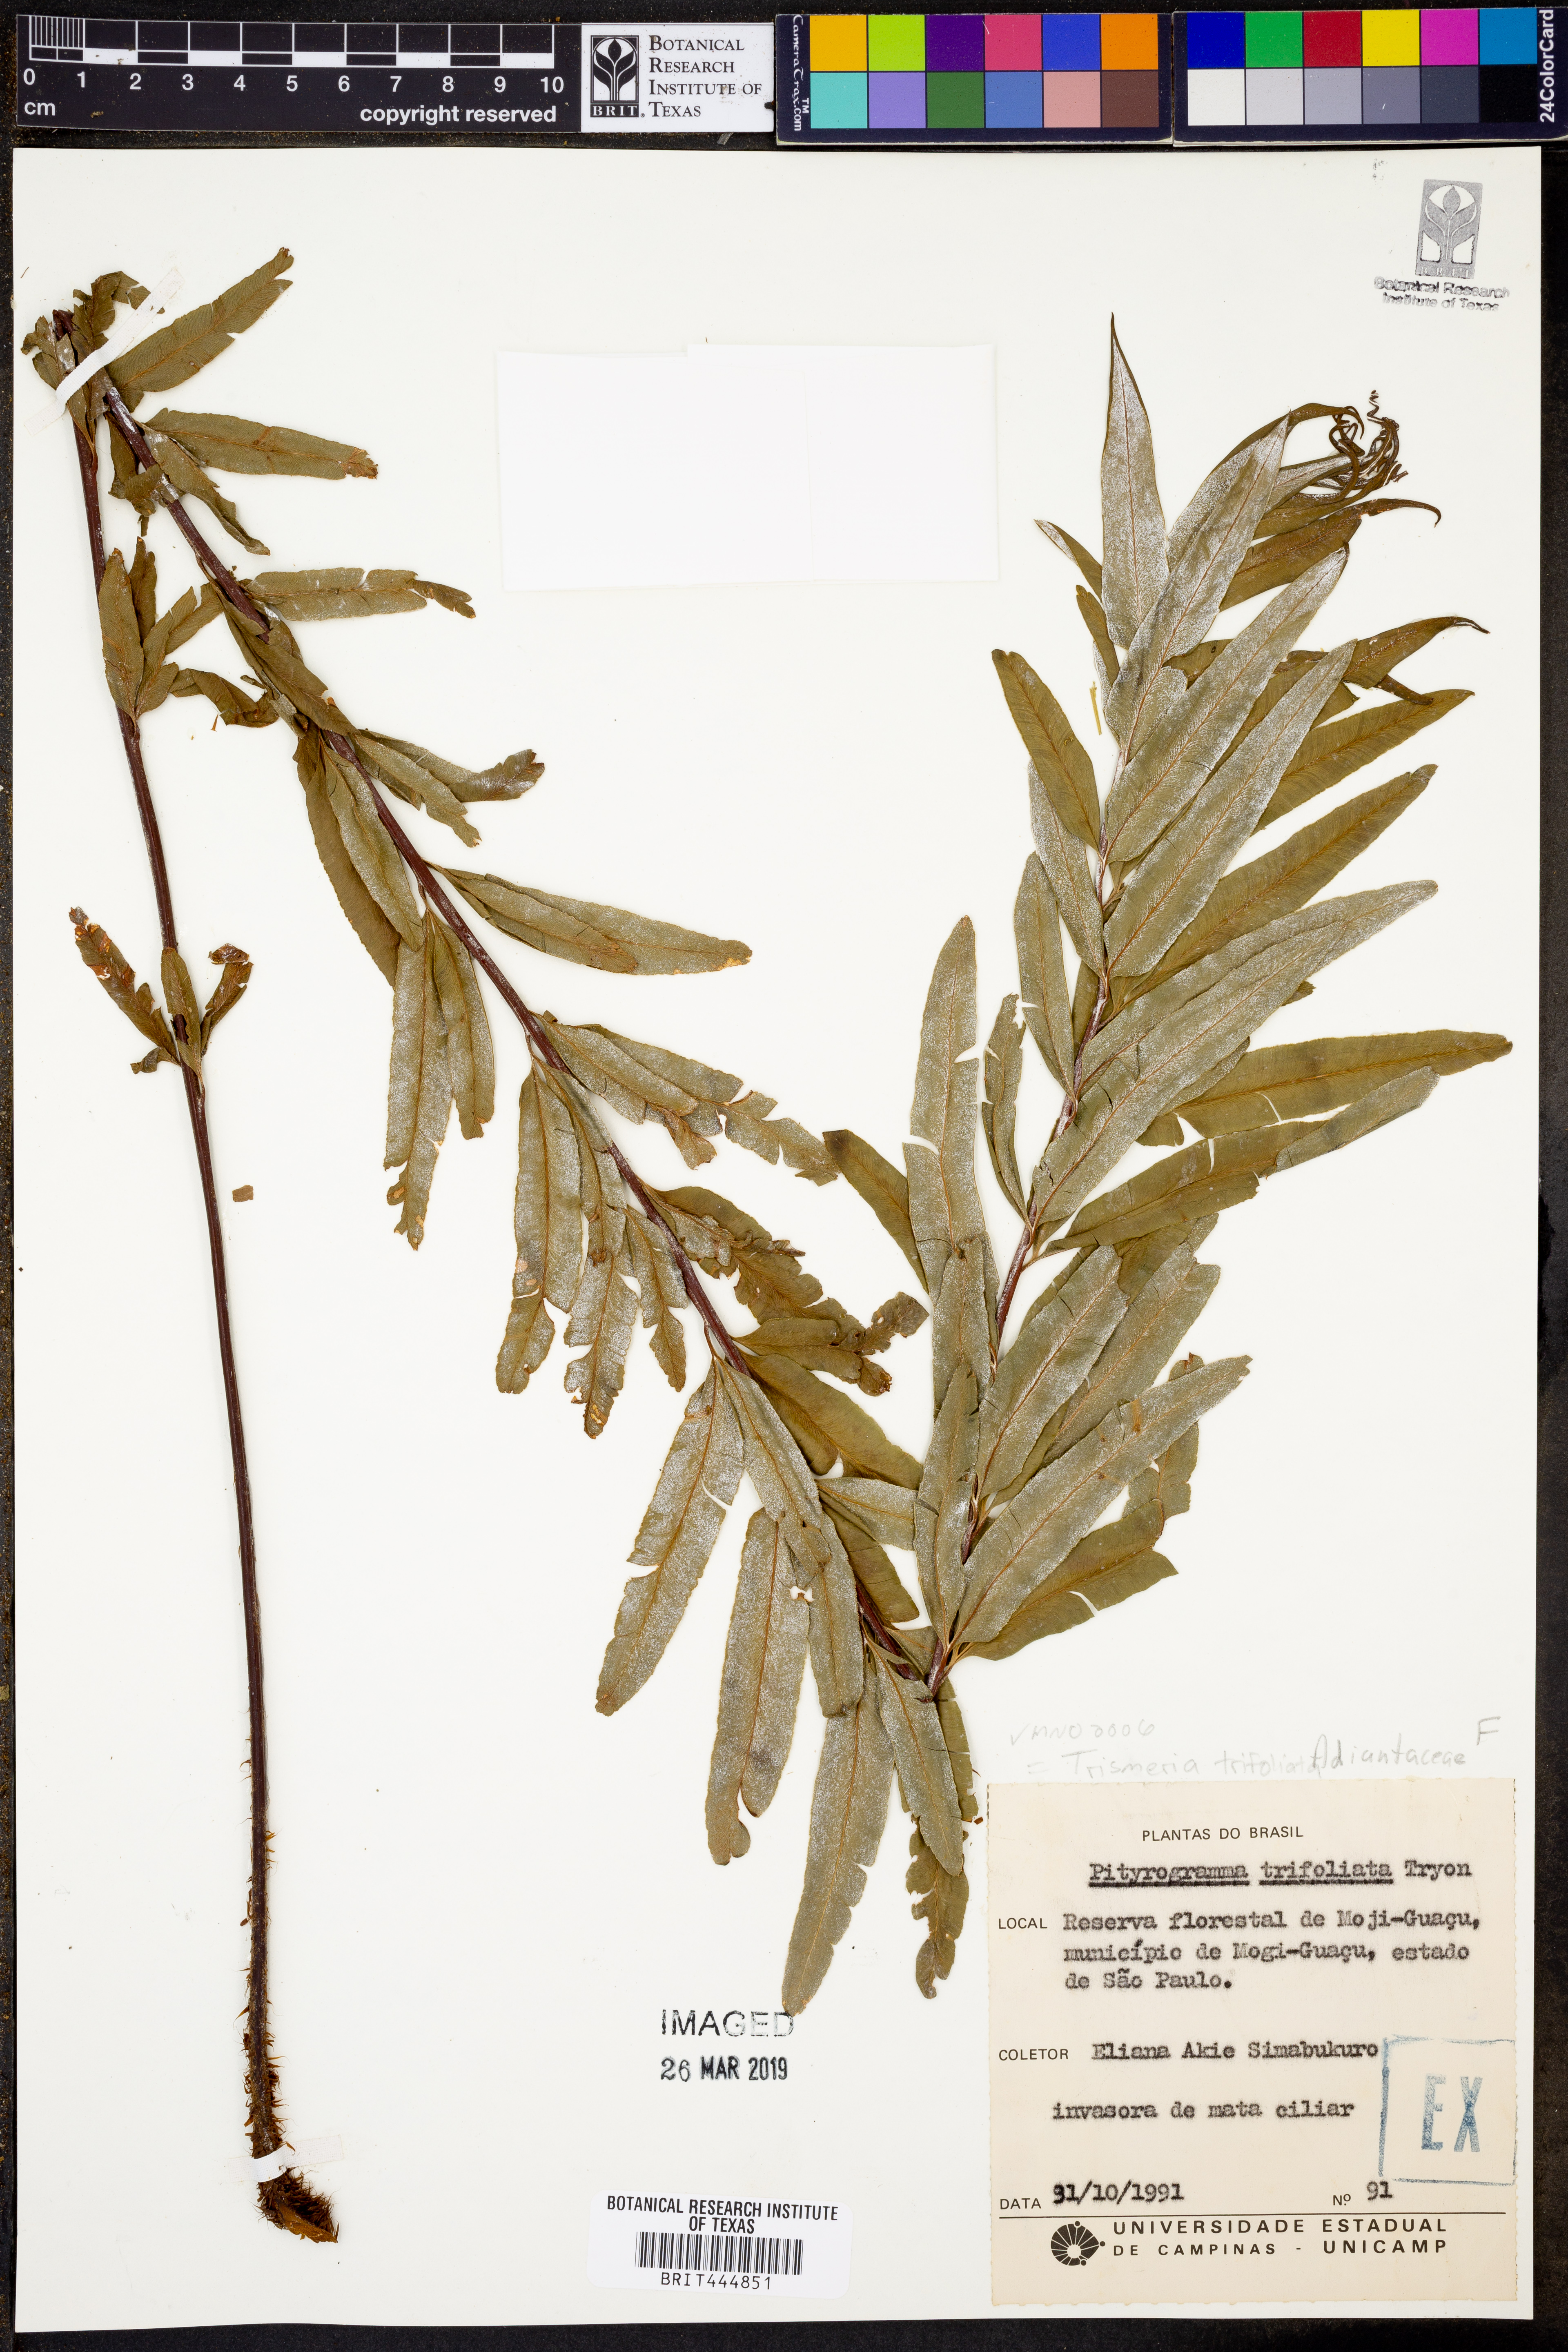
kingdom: Plantae
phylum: Tracheophyta
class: Polypodiopsida
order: Polypodiales
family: Pteridaceae
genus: Pityrogramma
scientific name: Pityrogramma trifoliata
